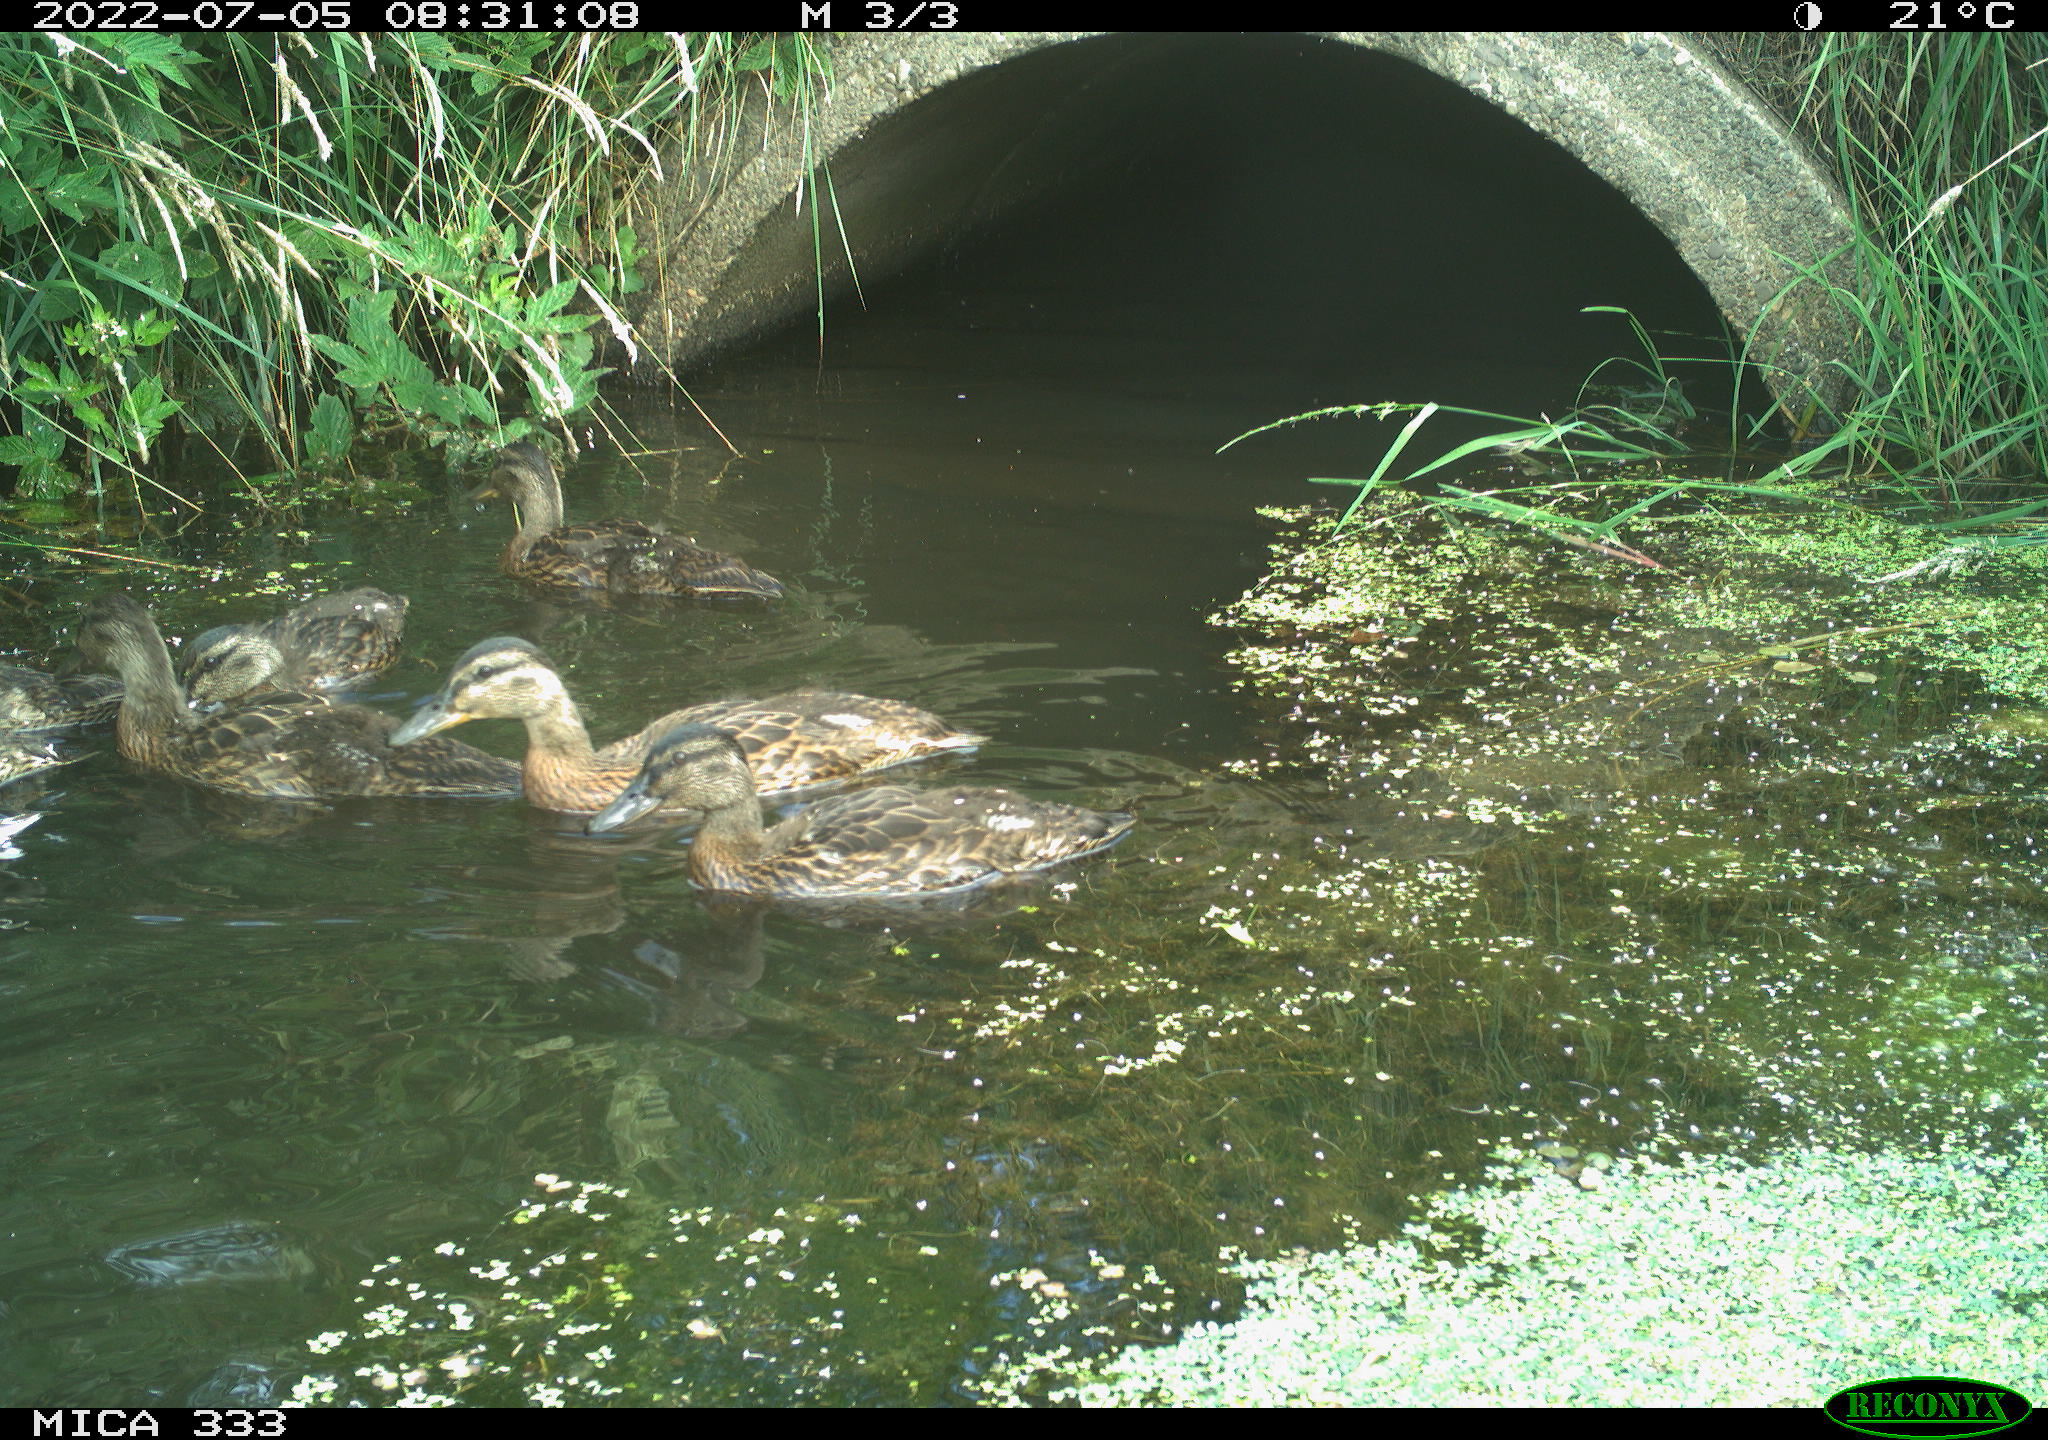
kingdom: Animalia
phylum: Chordata
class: Aves
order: Anseriformes
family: Anatidae
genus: Anas
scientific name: Anas platyrhynchos
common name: Mallard
